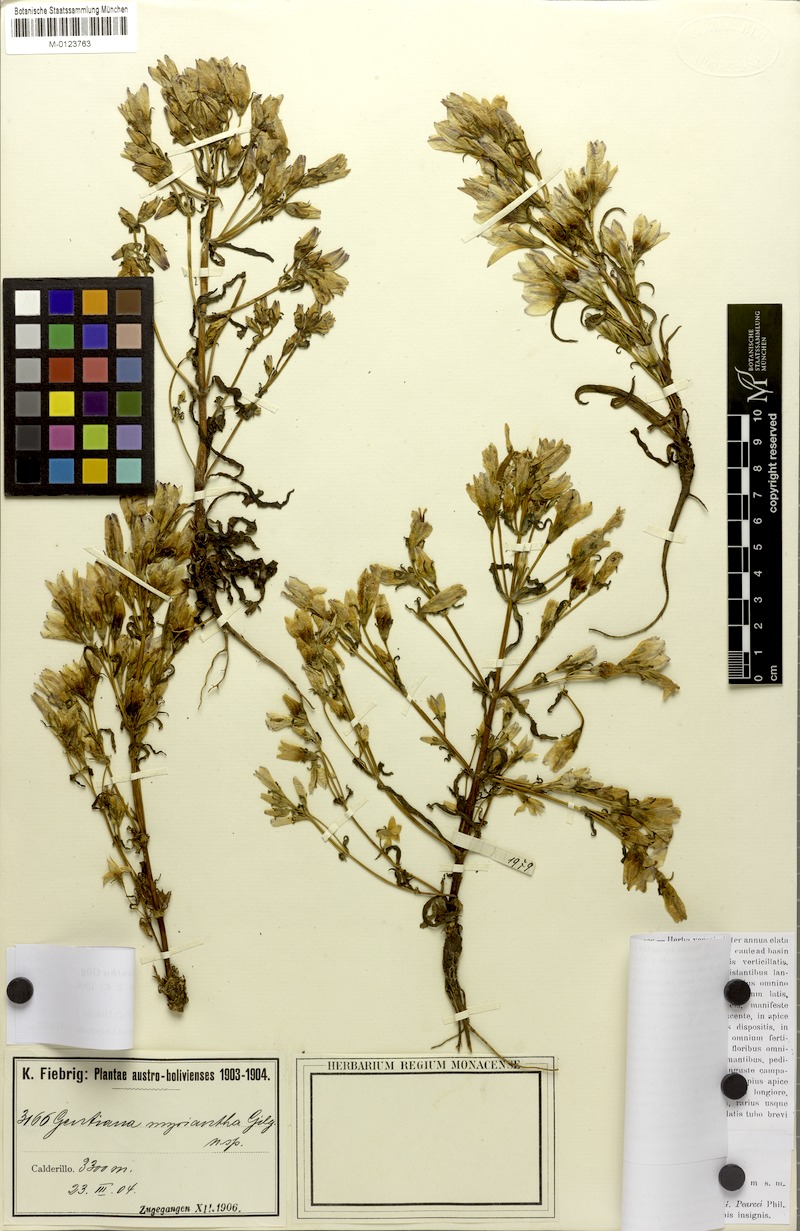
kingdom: Plantae
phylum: Tracheophyta
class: Magnoliopsida
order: Gentianales
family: Gentianaceae
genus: Gentianella
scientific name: Gentianella myriantha
